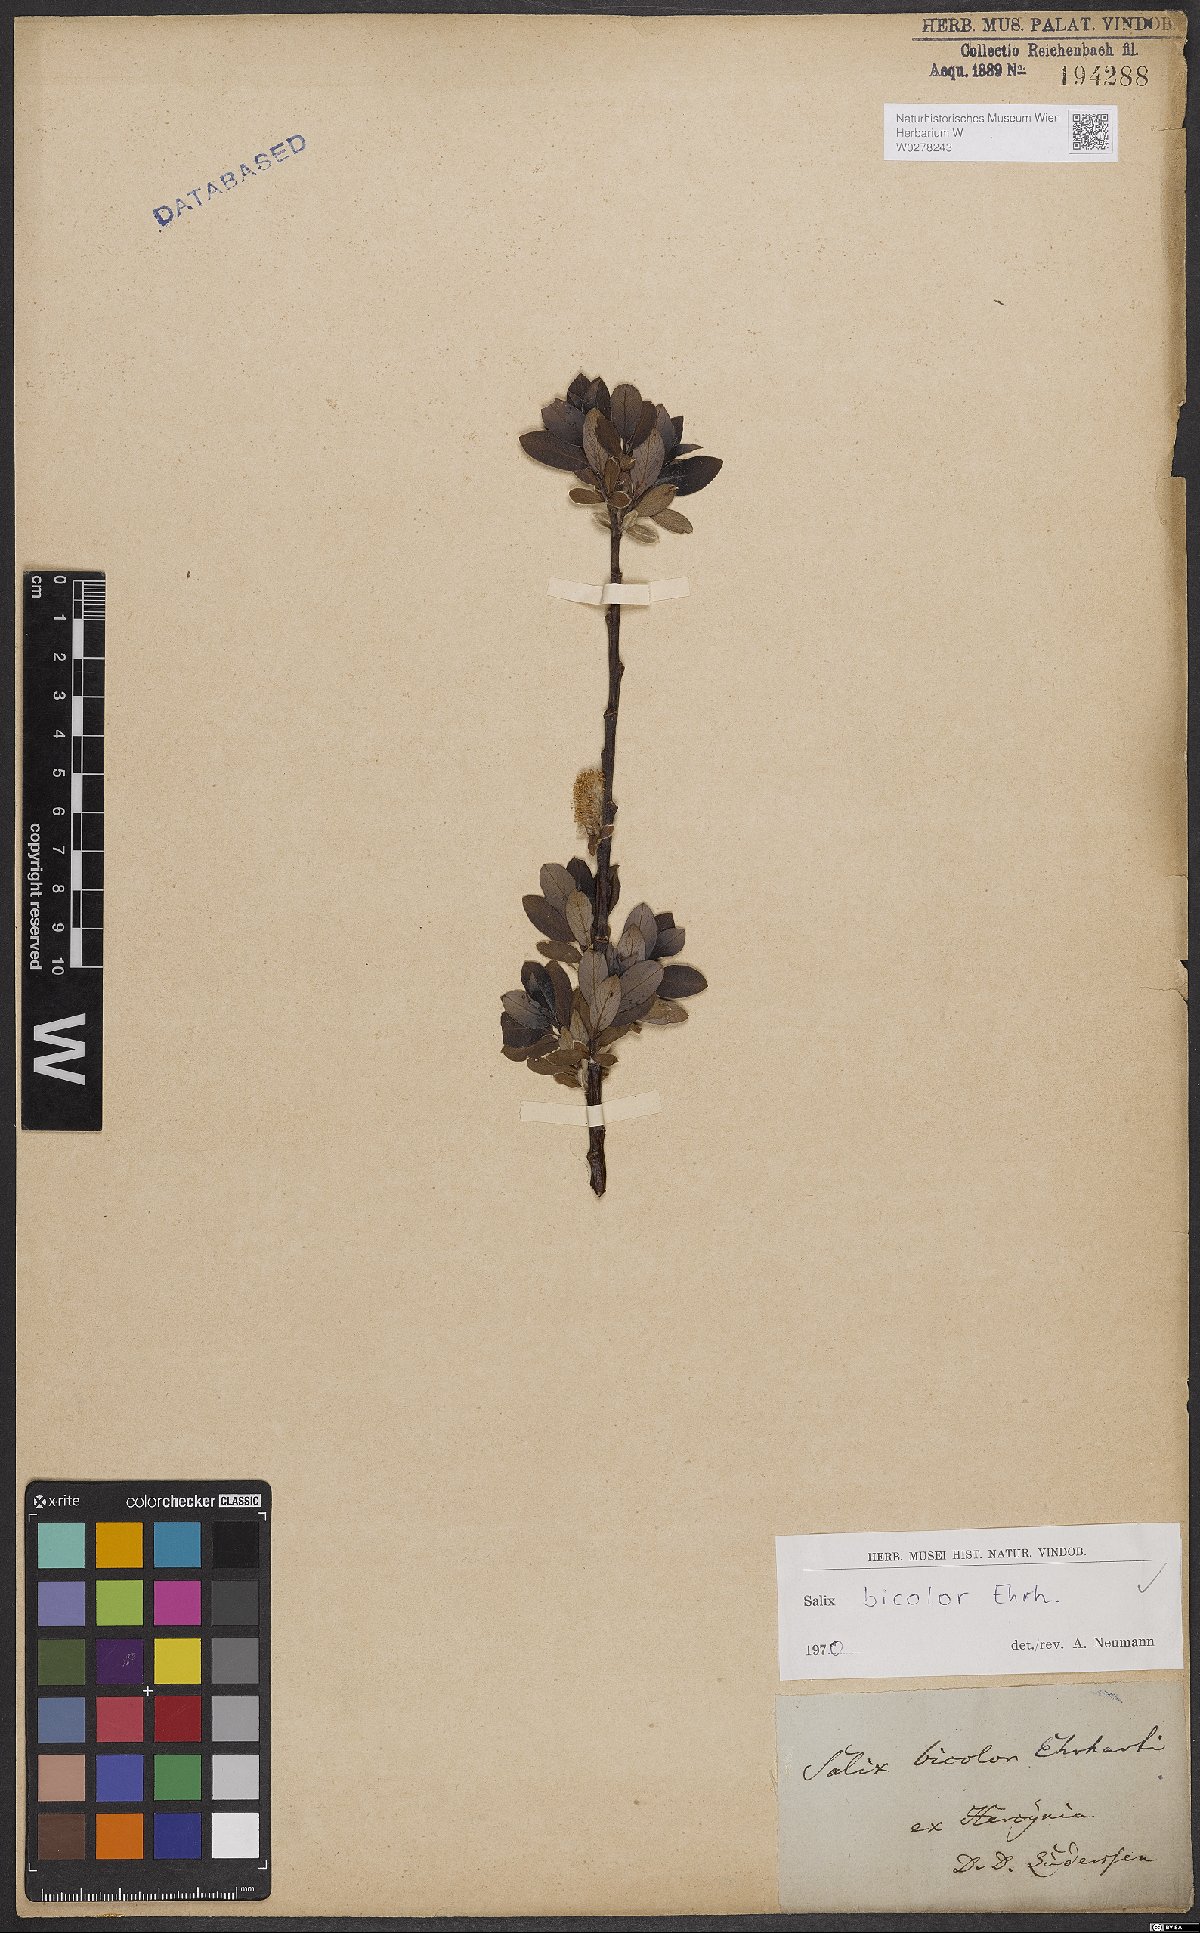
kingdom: Plantae
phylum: Tracheophyta
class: Magnoliopsida
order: Malpighiales
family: Salicaceae
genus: Salix
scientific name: Salix bicolor
